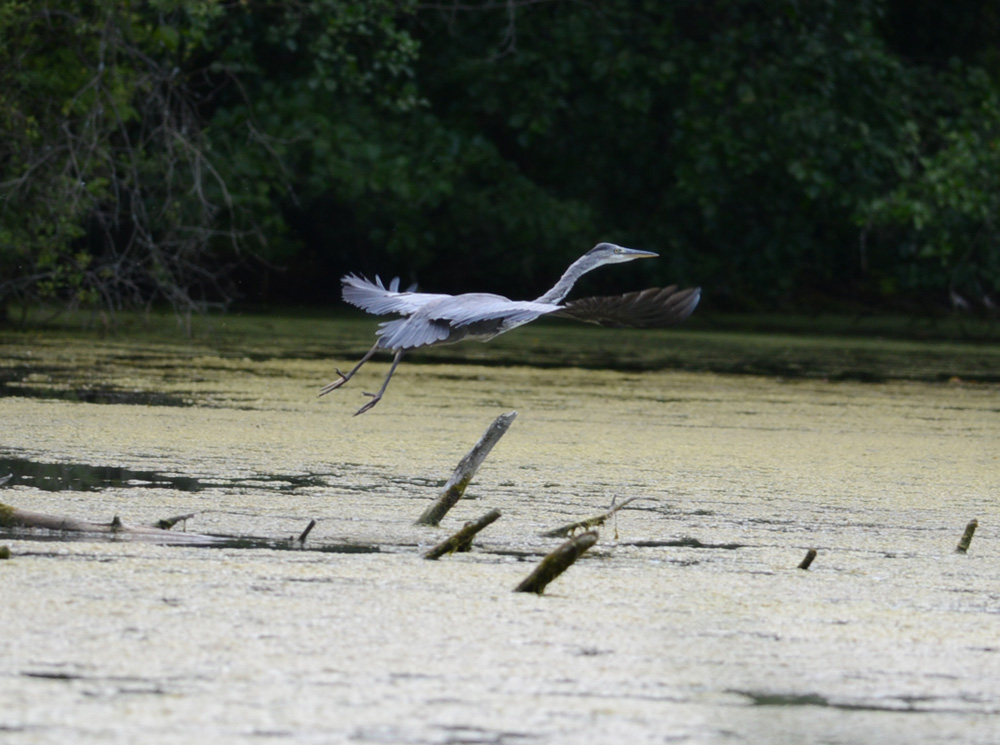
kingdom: Animalia
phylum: Chordata
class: Aves
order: Pelecaniformes
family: Ardeidae
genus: Ardea
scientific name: Ardea cinerea
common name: Grey heron
